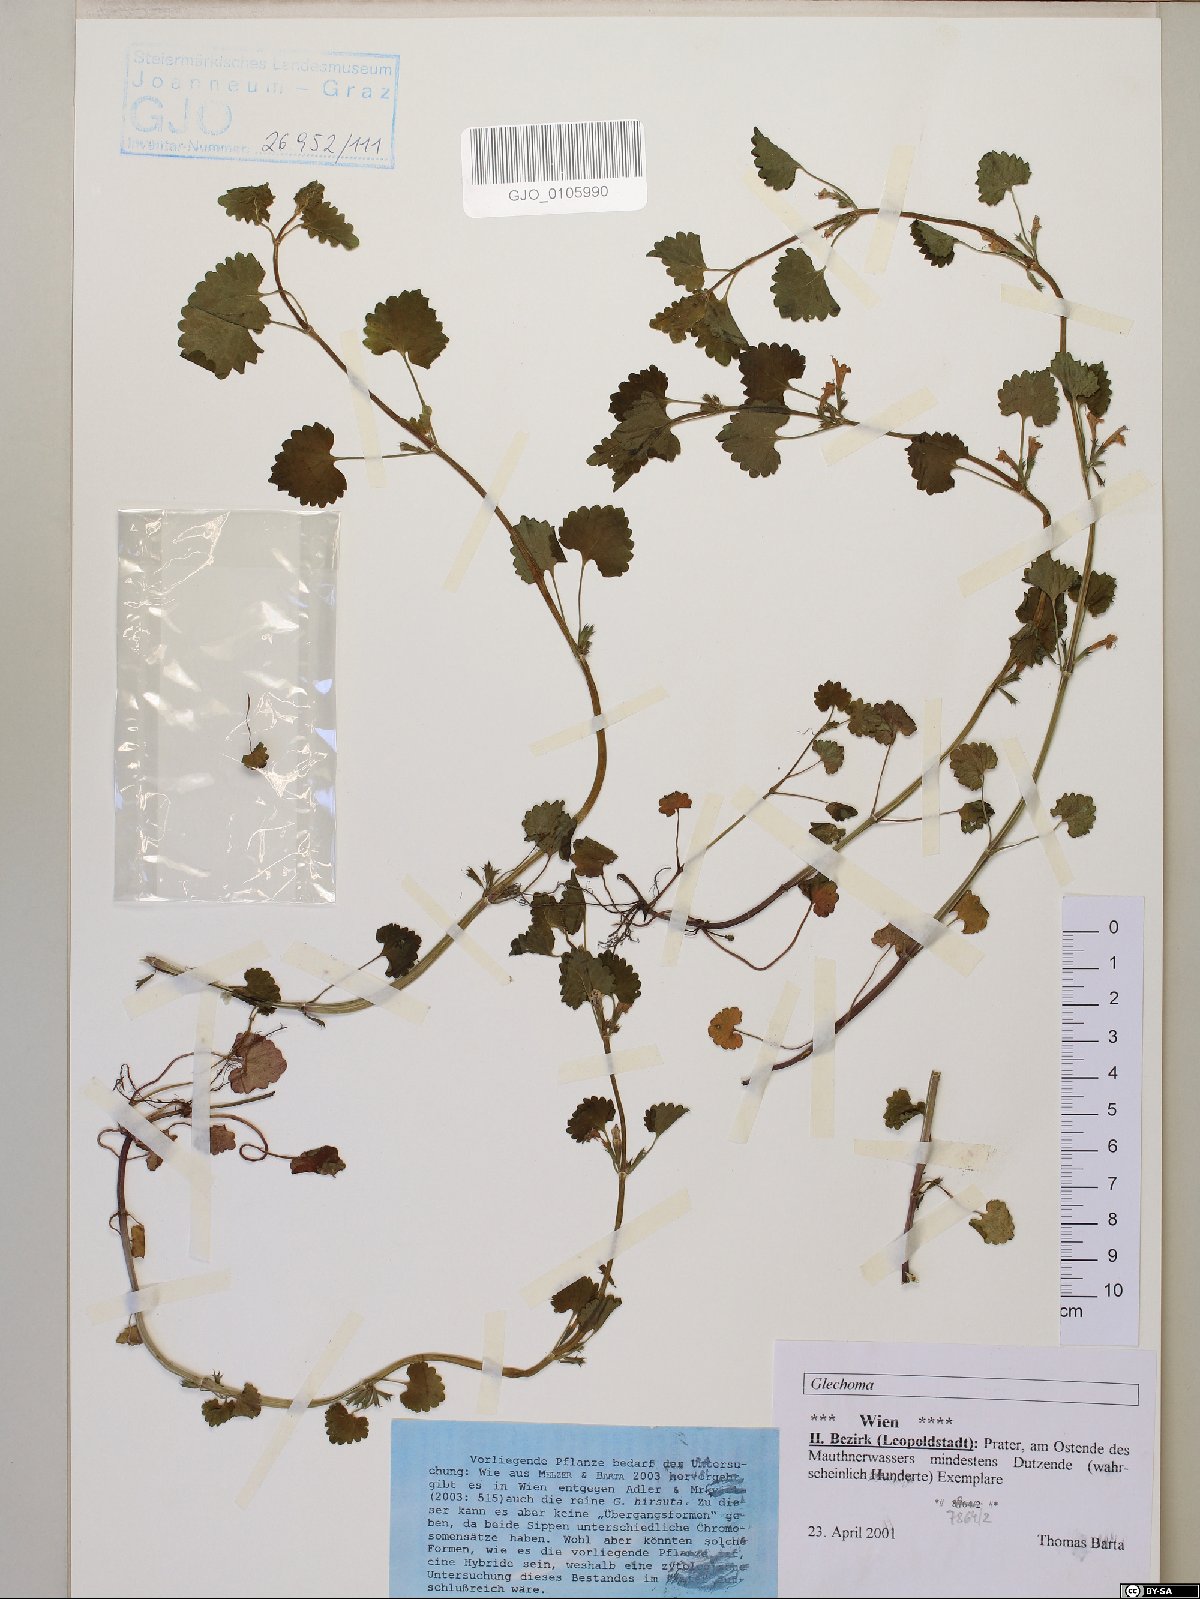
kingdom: Plantae
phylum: Tracheophyta
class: Magnoliopsida
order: Lamiales
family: Lamiaceae
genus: Glechoma
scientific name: Glechoma
